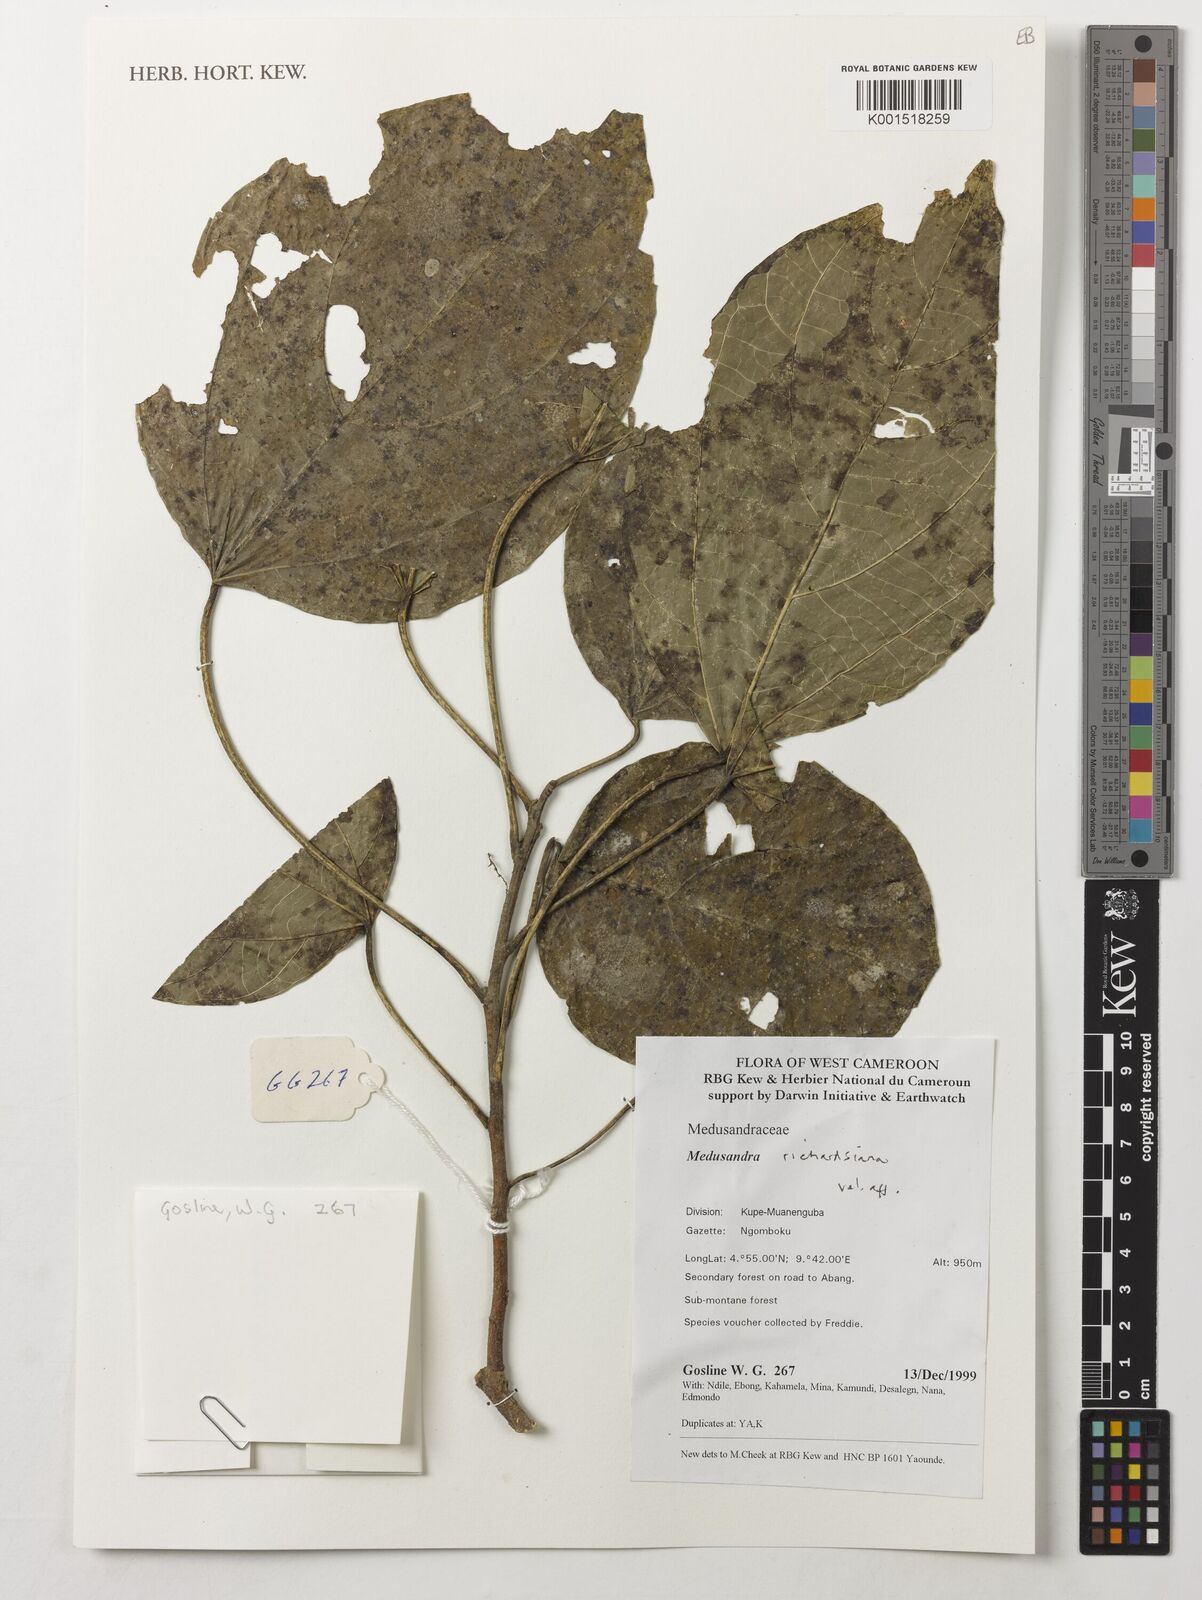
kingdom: Plantae
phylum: Tracheophyta
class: Magnoliopsida
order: Saxifragales
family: Peridiscaceae
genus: Medusandra
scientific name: Medusandra richardsiana
